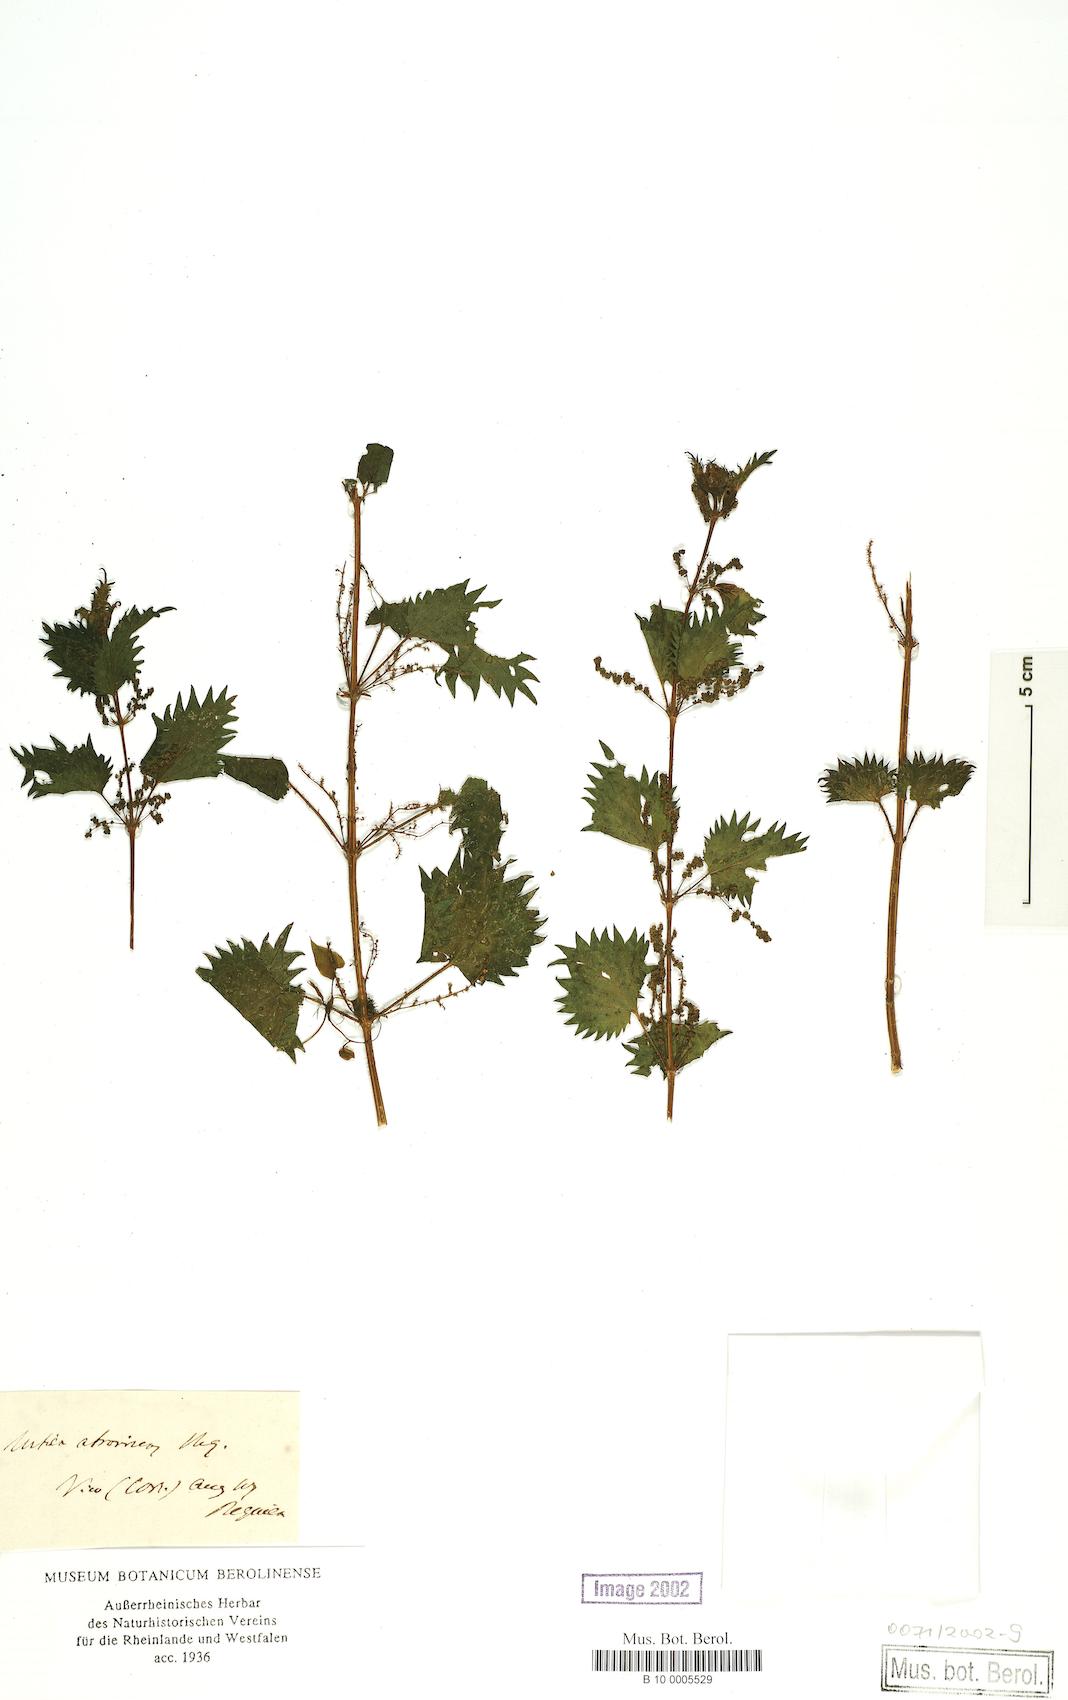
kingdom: Plantae
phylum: Tracheophyta
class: Magnoliopsida
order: Rosales
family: Urticaceae
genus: Urtica
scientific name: Urtica atrovirens
